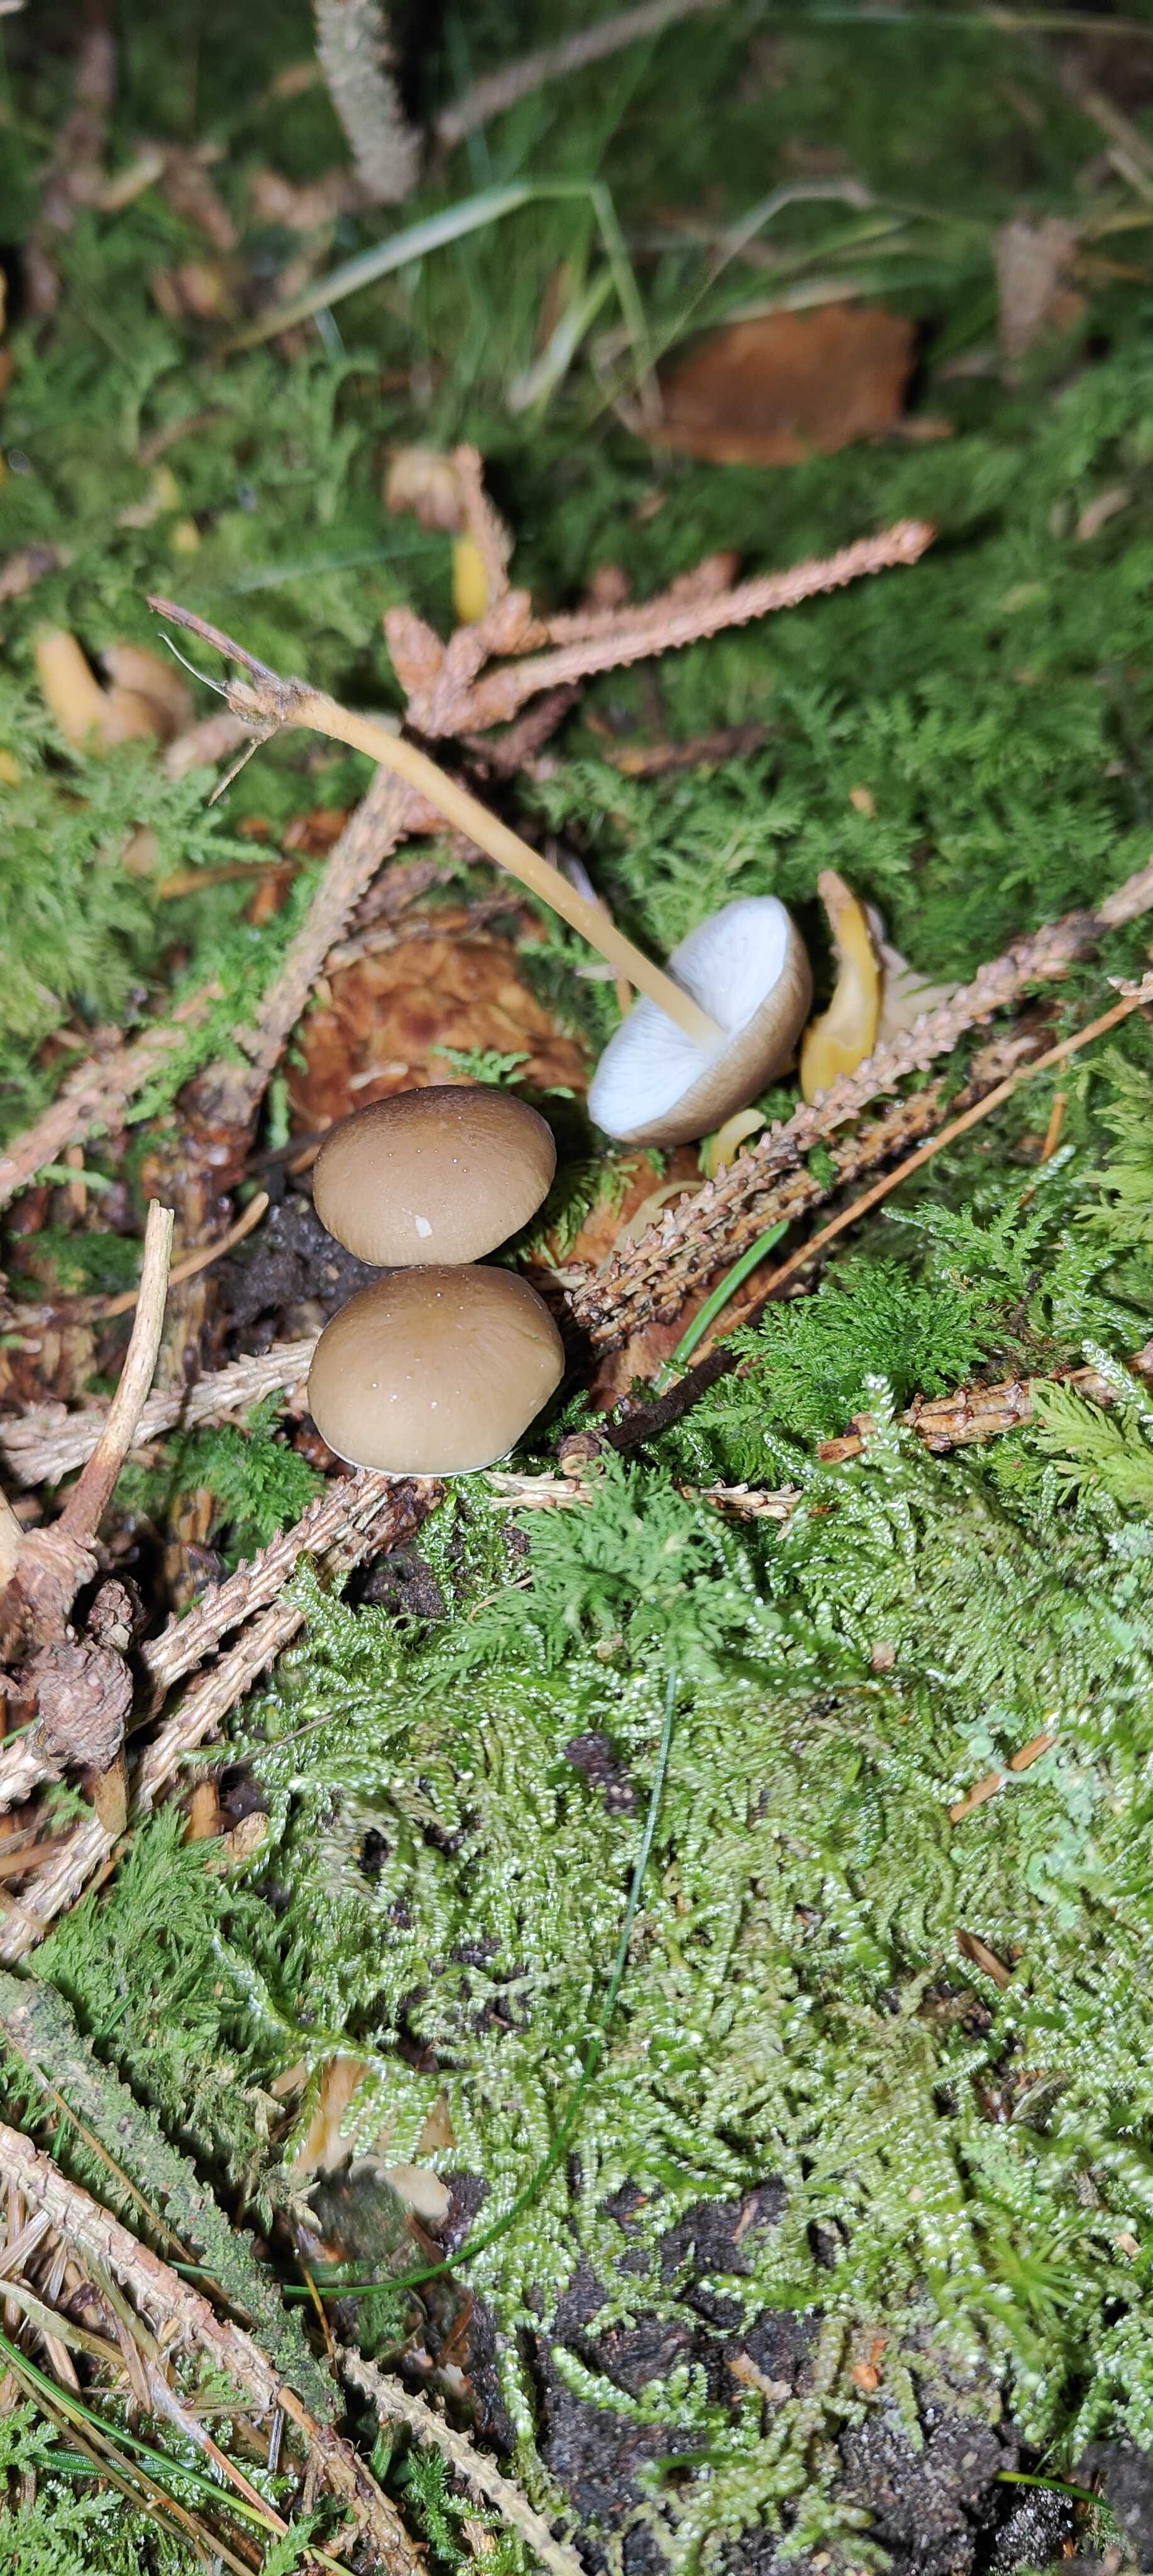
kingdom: Fungi
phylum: Basidiomycota
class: Agaricomycetes
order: Agaricales
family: Physalacriaceae
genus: Strobilurus
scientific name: Strobilurus esculentus
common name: gran-koglehat
